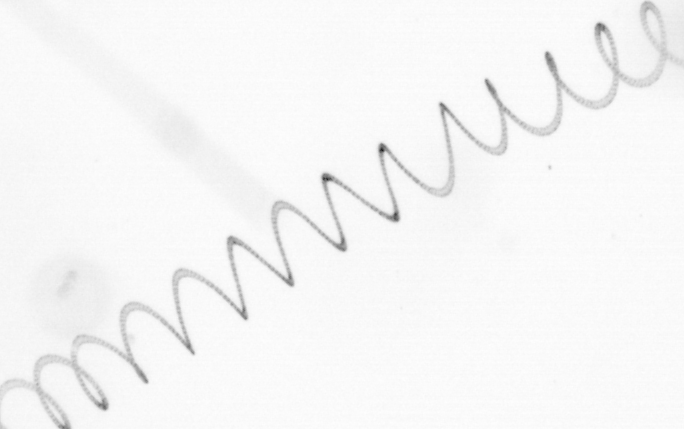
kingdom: Chromista
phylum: Ochrophyta
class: Bacillariophyceae
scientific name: Bacillariophyceae
